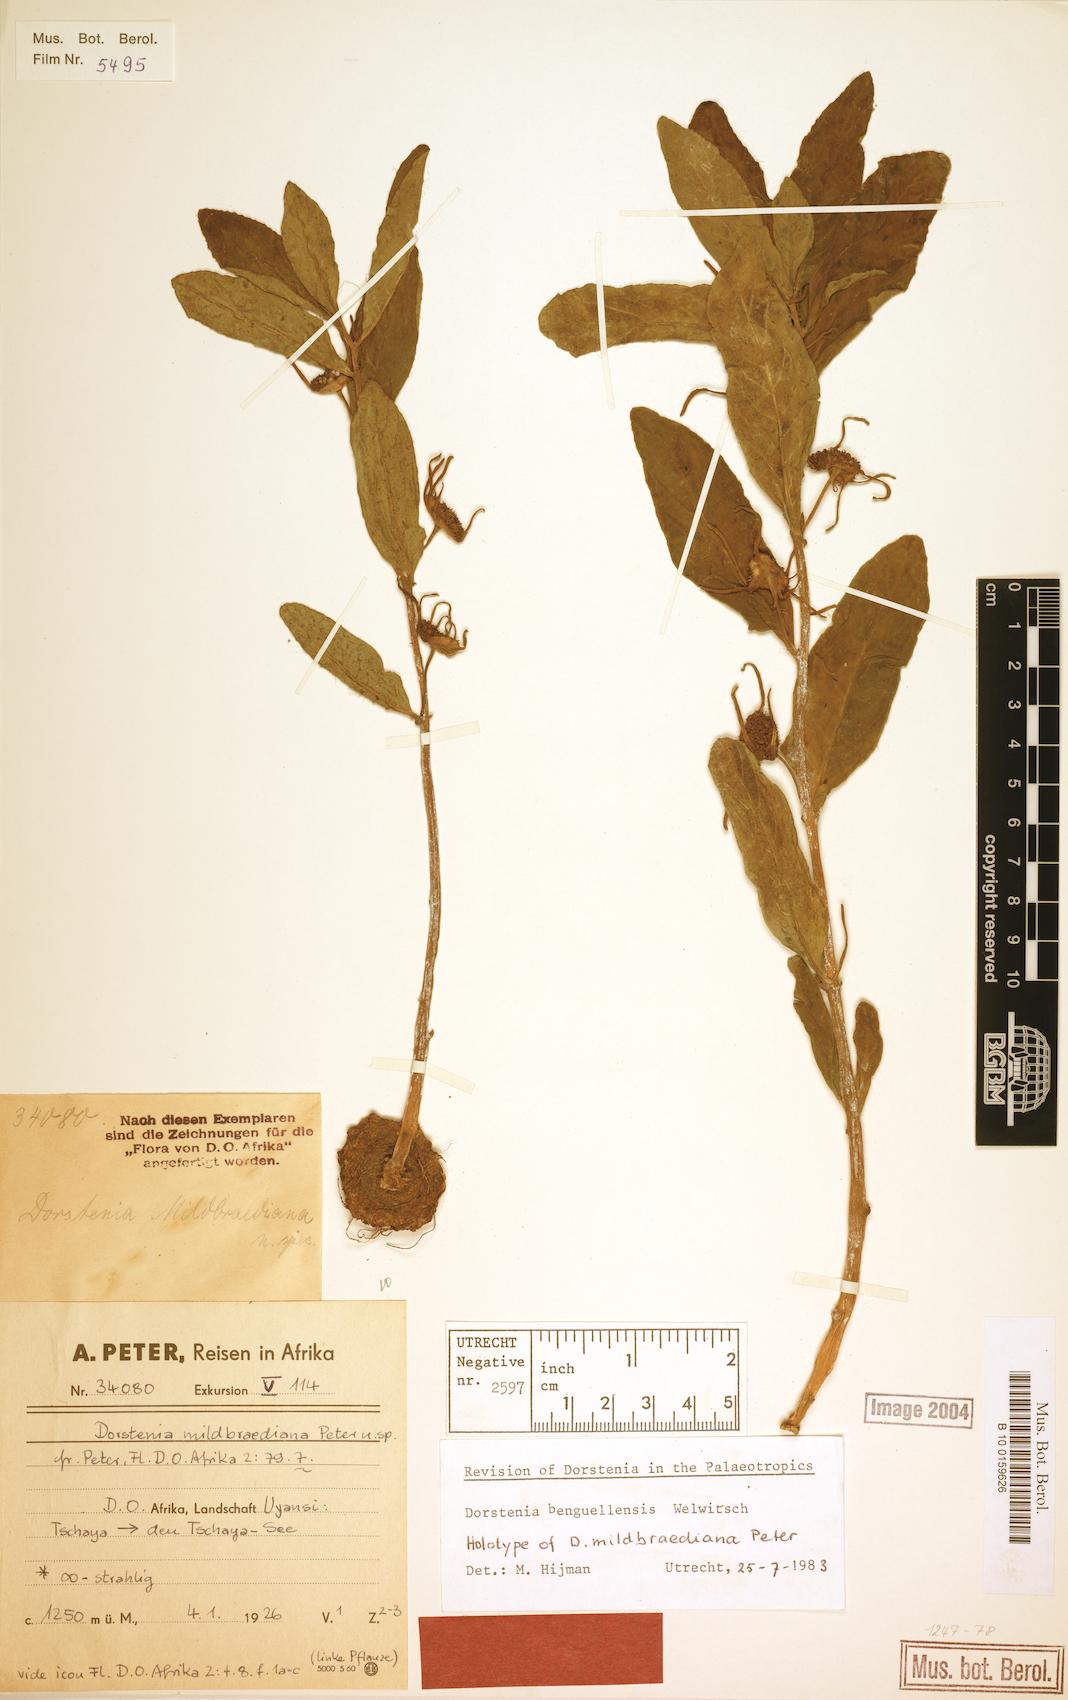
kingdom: Plantae
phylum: Tracheophyta
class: Magnoliopsida
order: Rosales
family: Moraceae
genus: Dorstenia
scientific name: Dorstenia benguellensis
